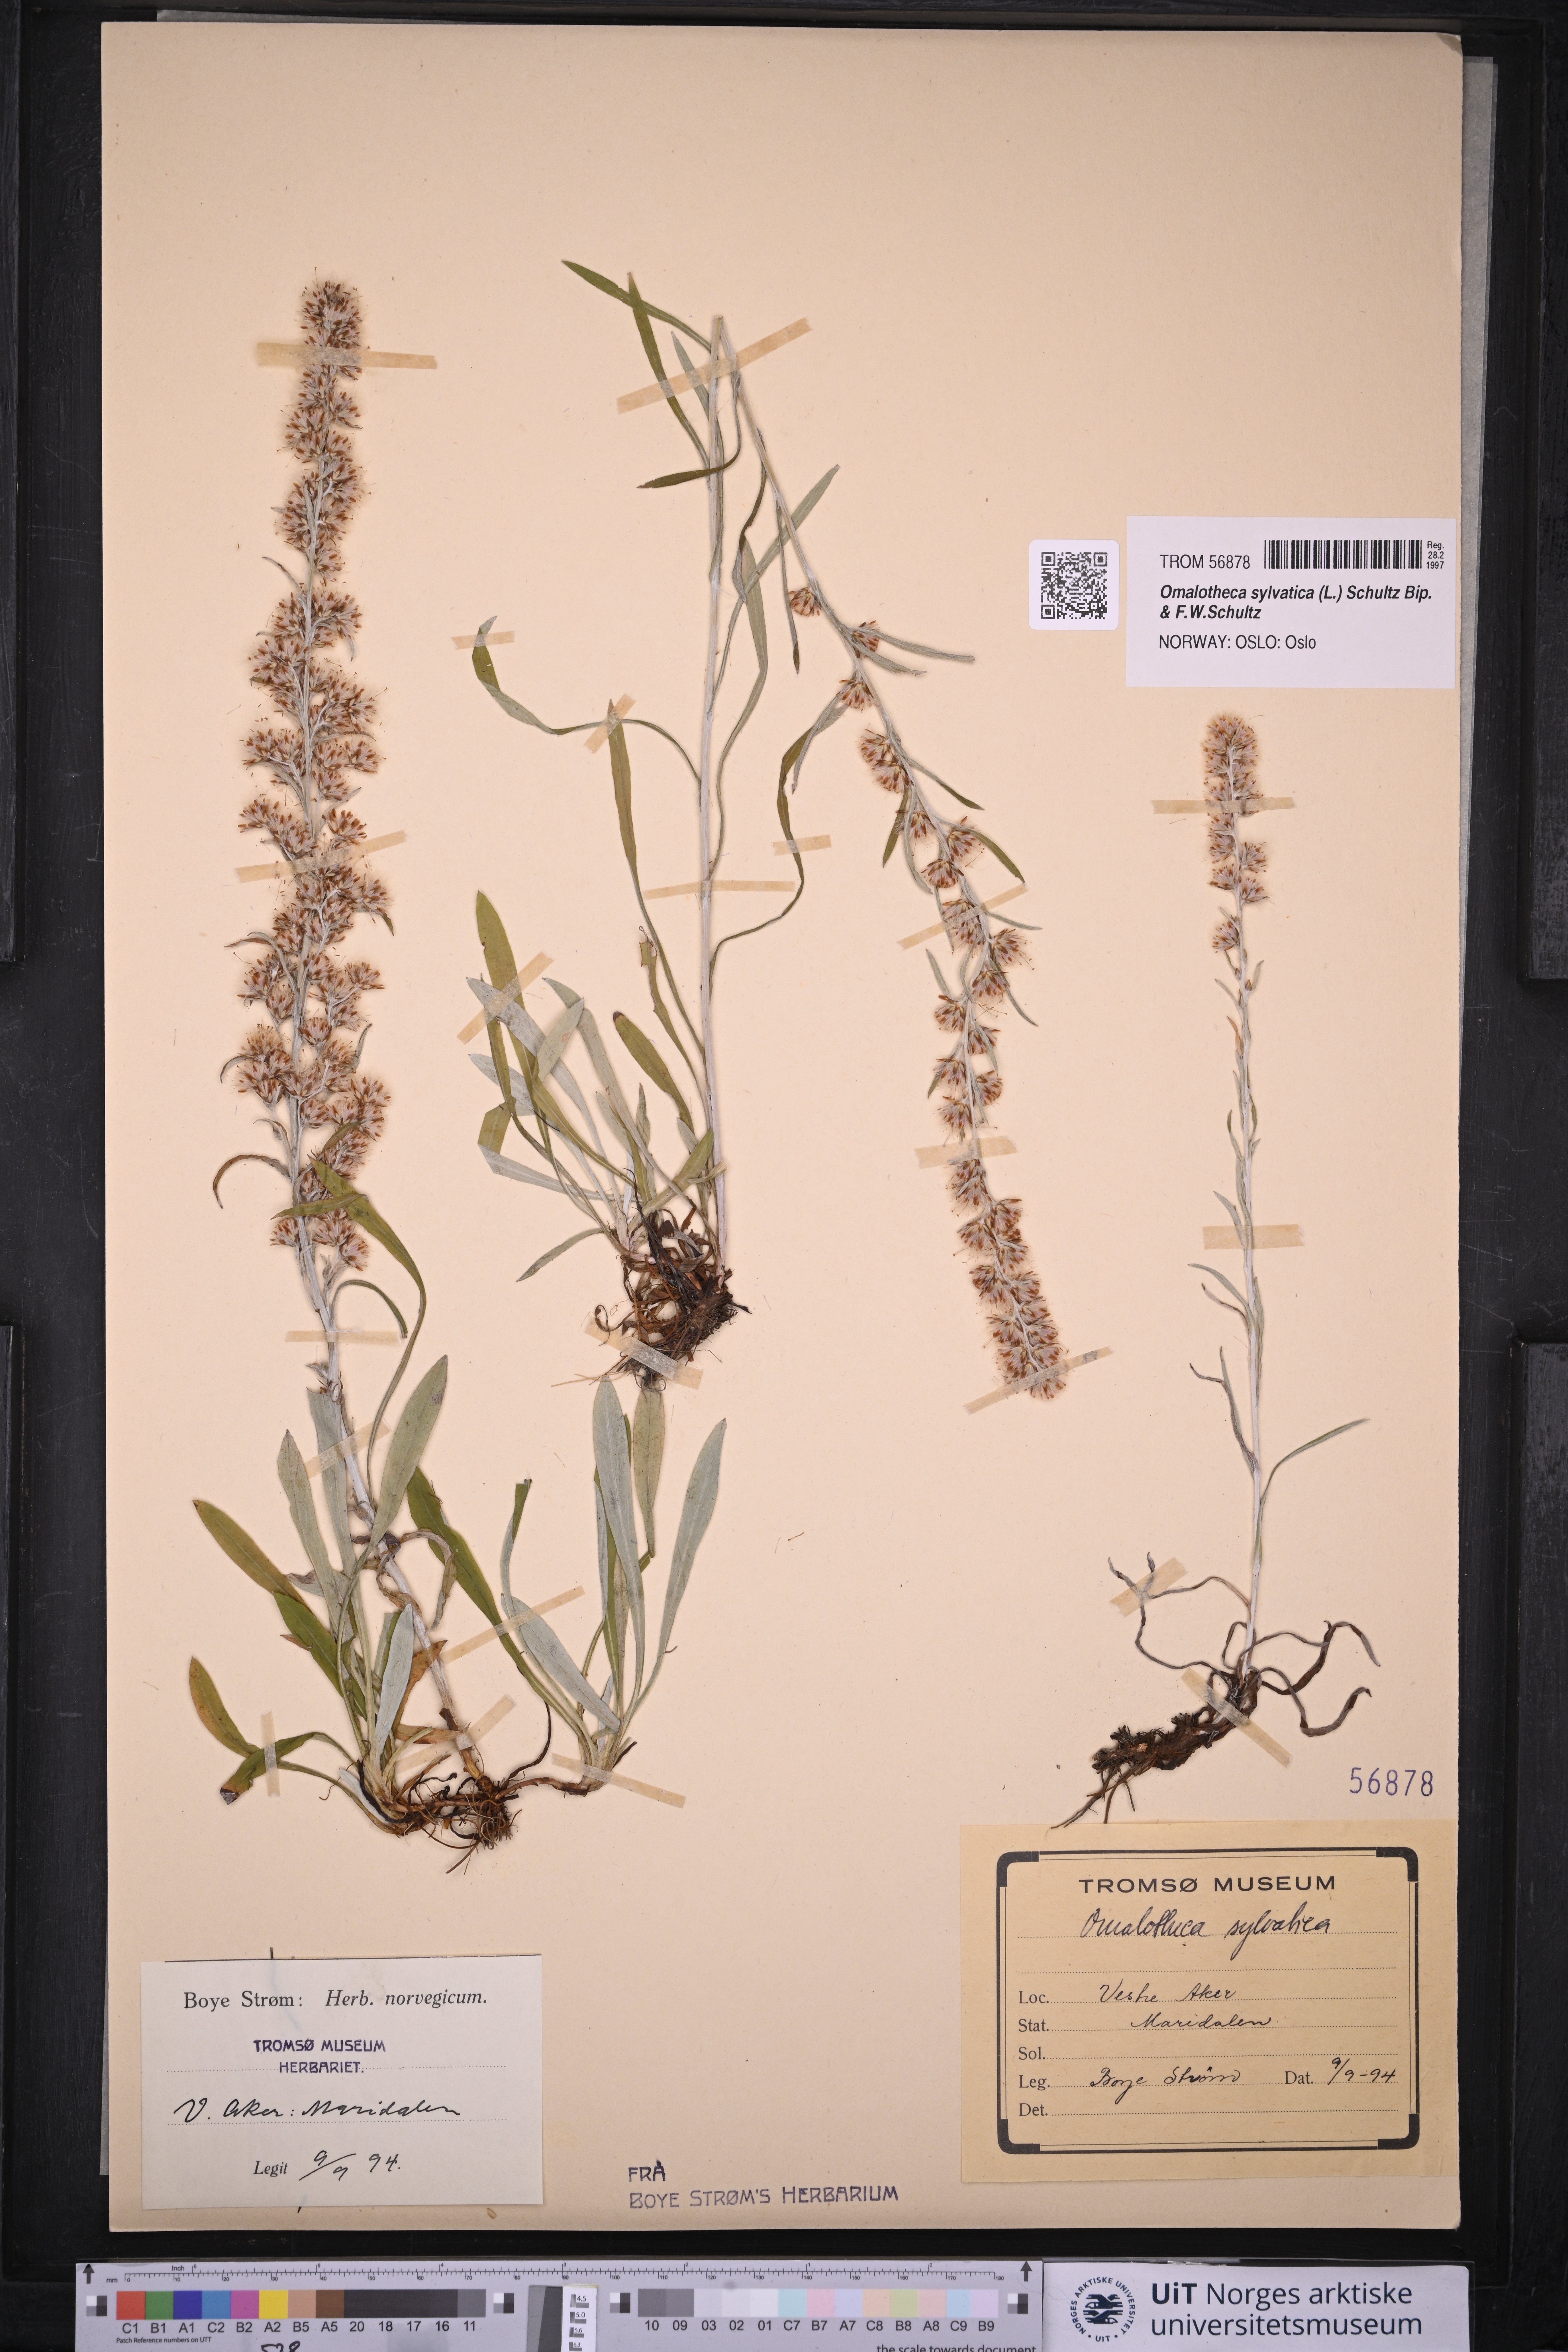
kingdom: Plantae
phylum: Tracheophyta
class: Magnoliopsida
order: Asterales
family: Asteraceae
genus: Omalotheca
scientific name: Omalotheca sylvatica
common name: Heath cudweed
